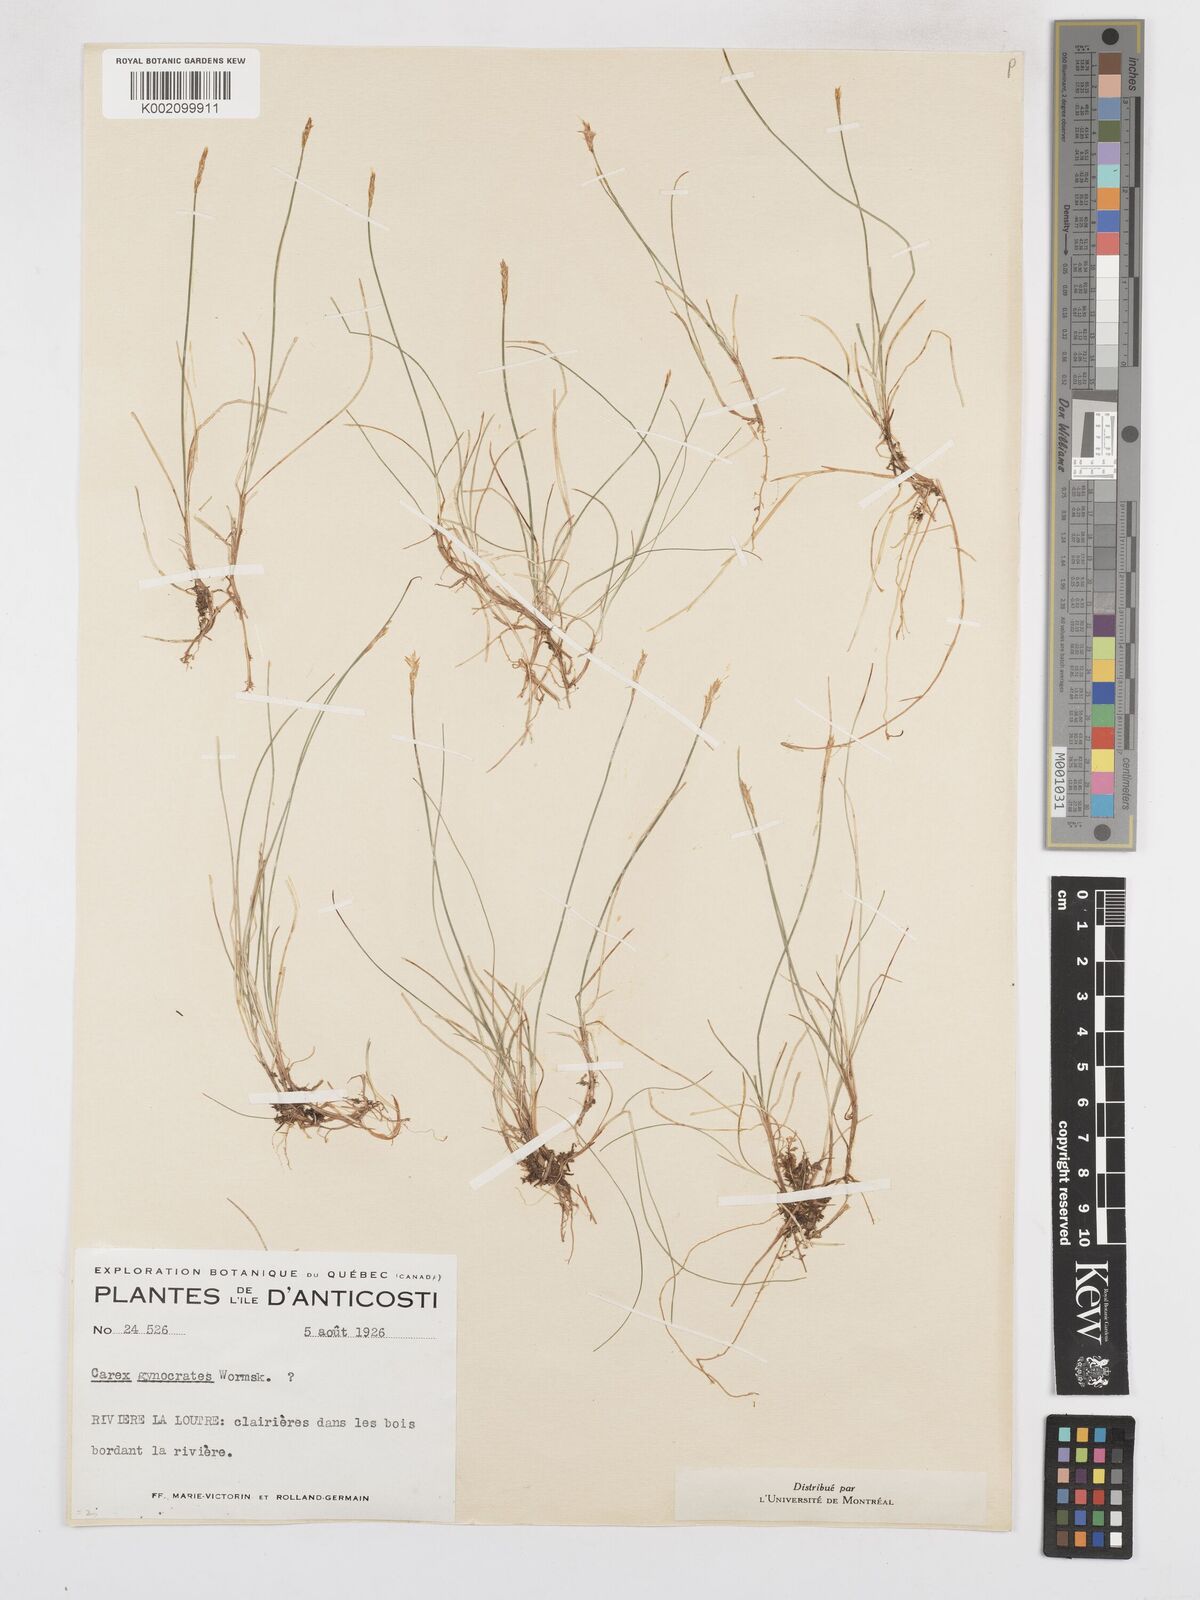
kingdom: Plantae
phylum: Tracheophyta
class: Liliopsida
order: Poales
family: Cyperaceae
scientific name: Cyperaceae
